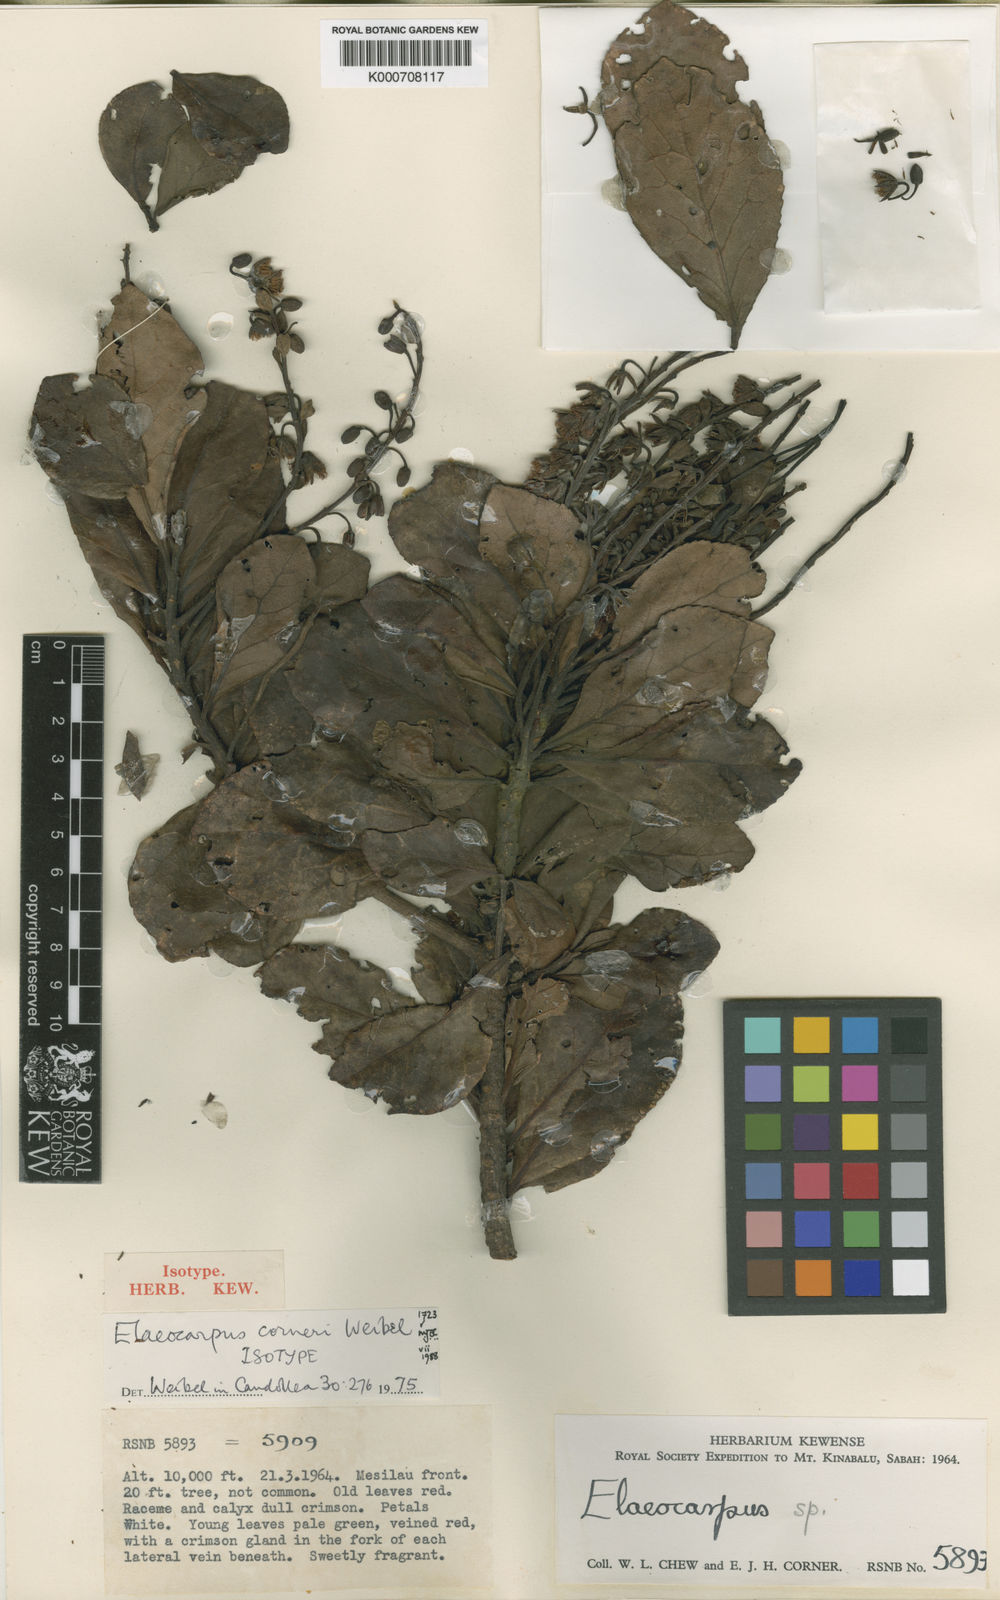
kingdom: Plantae
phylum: Tracheophyta
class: Magnoliopsida
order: Oxalidales
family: Elaeocarpaceae
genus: Elaeocarpus
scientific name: Elaeocarpus corneri
